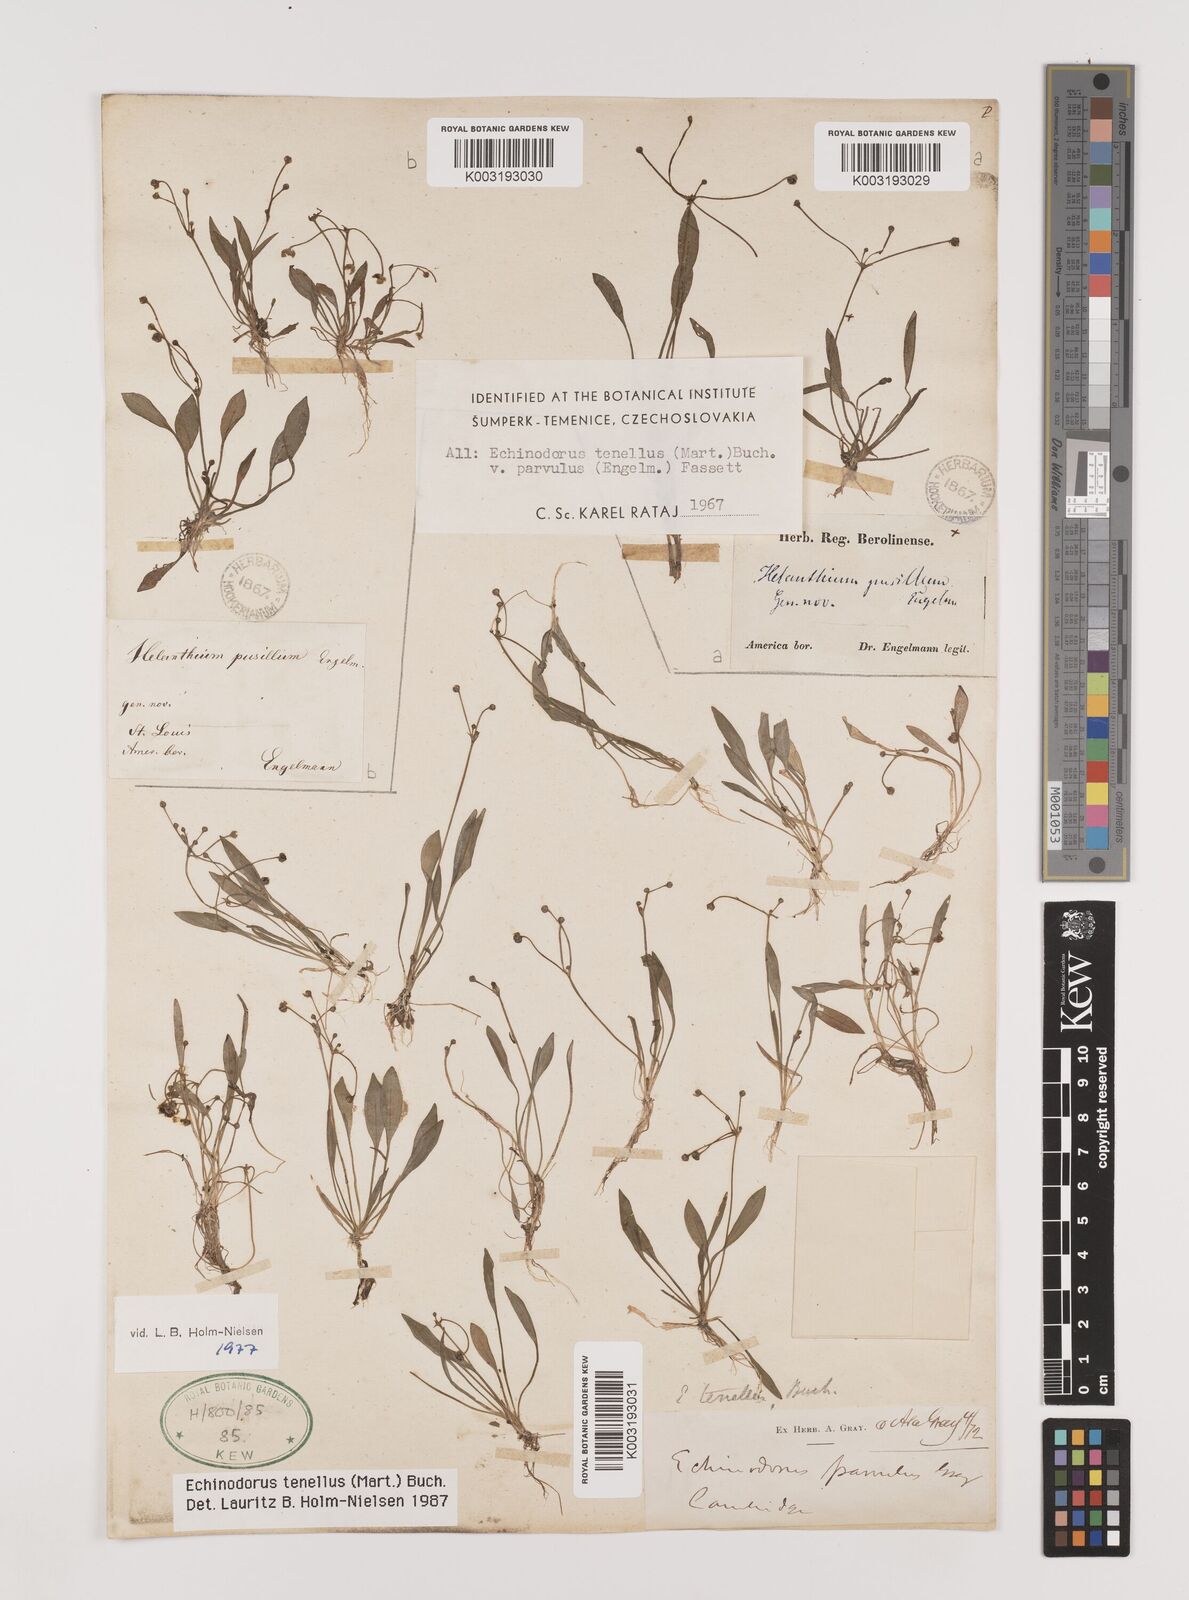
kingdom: Plantae
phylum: Tracheophyta
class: Liliopsida
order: Alismatales
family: Alismataceae
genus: Helanthium
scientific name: Helanthium tenellum
